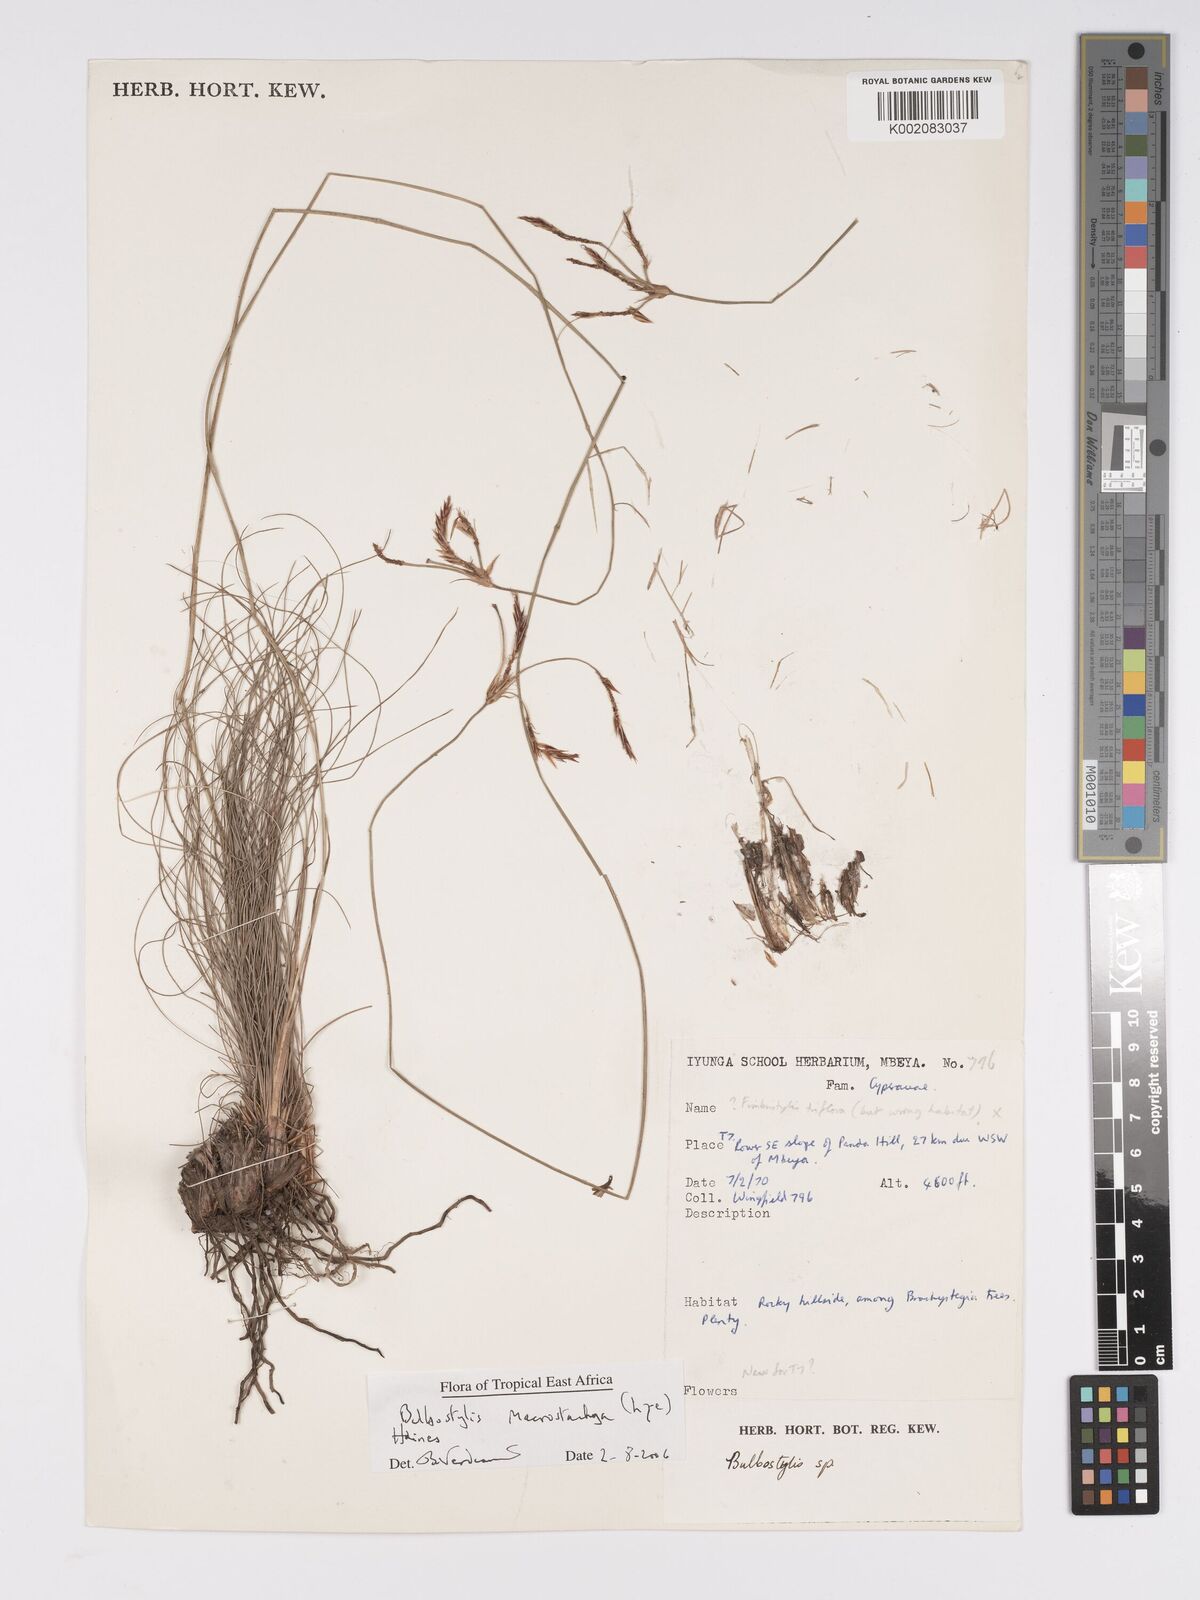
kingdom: Plantae
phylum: Tracheophyta
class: Liliopsida
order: Poales
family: Cyperaceae
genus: Bulbostylis
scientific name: Bulbostylis macrostachya
